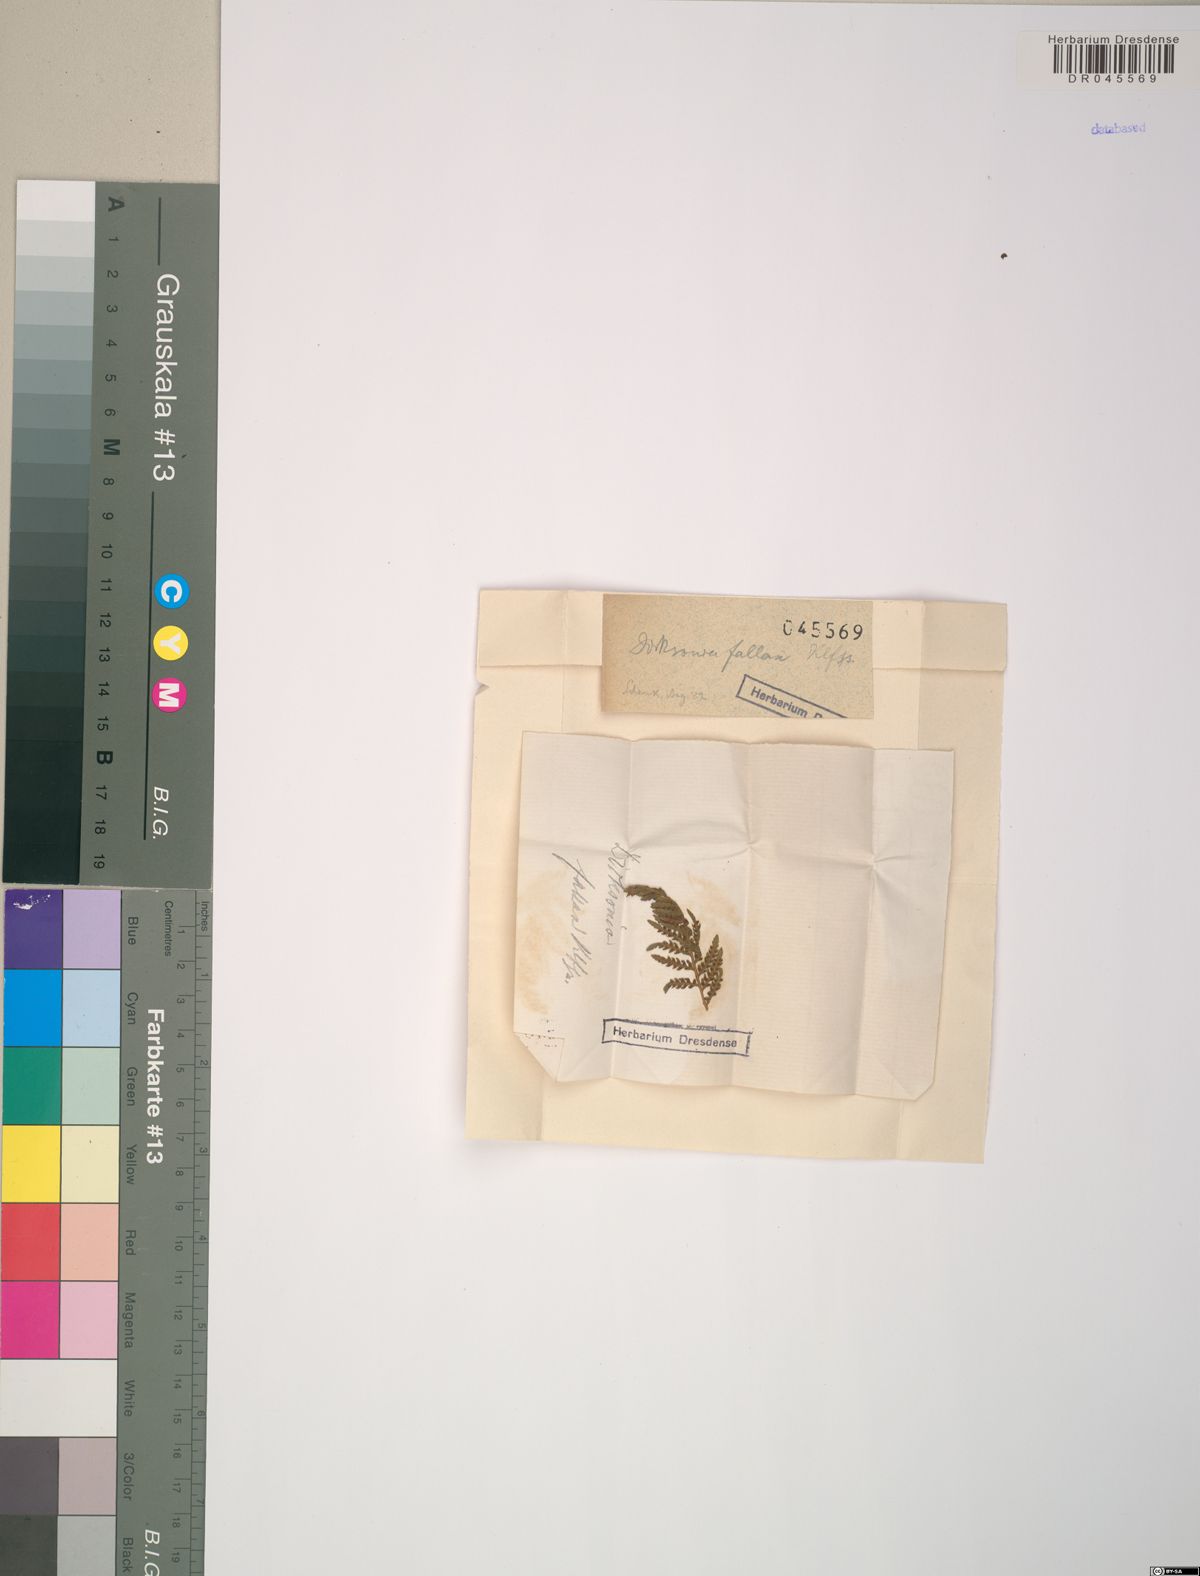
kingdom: Plantae
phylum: Tracheophyta
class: Polypodiopsida
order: Cyatheales
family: Dicksoniaceae
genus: Calochlaena
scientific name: Calochlaena dubia
